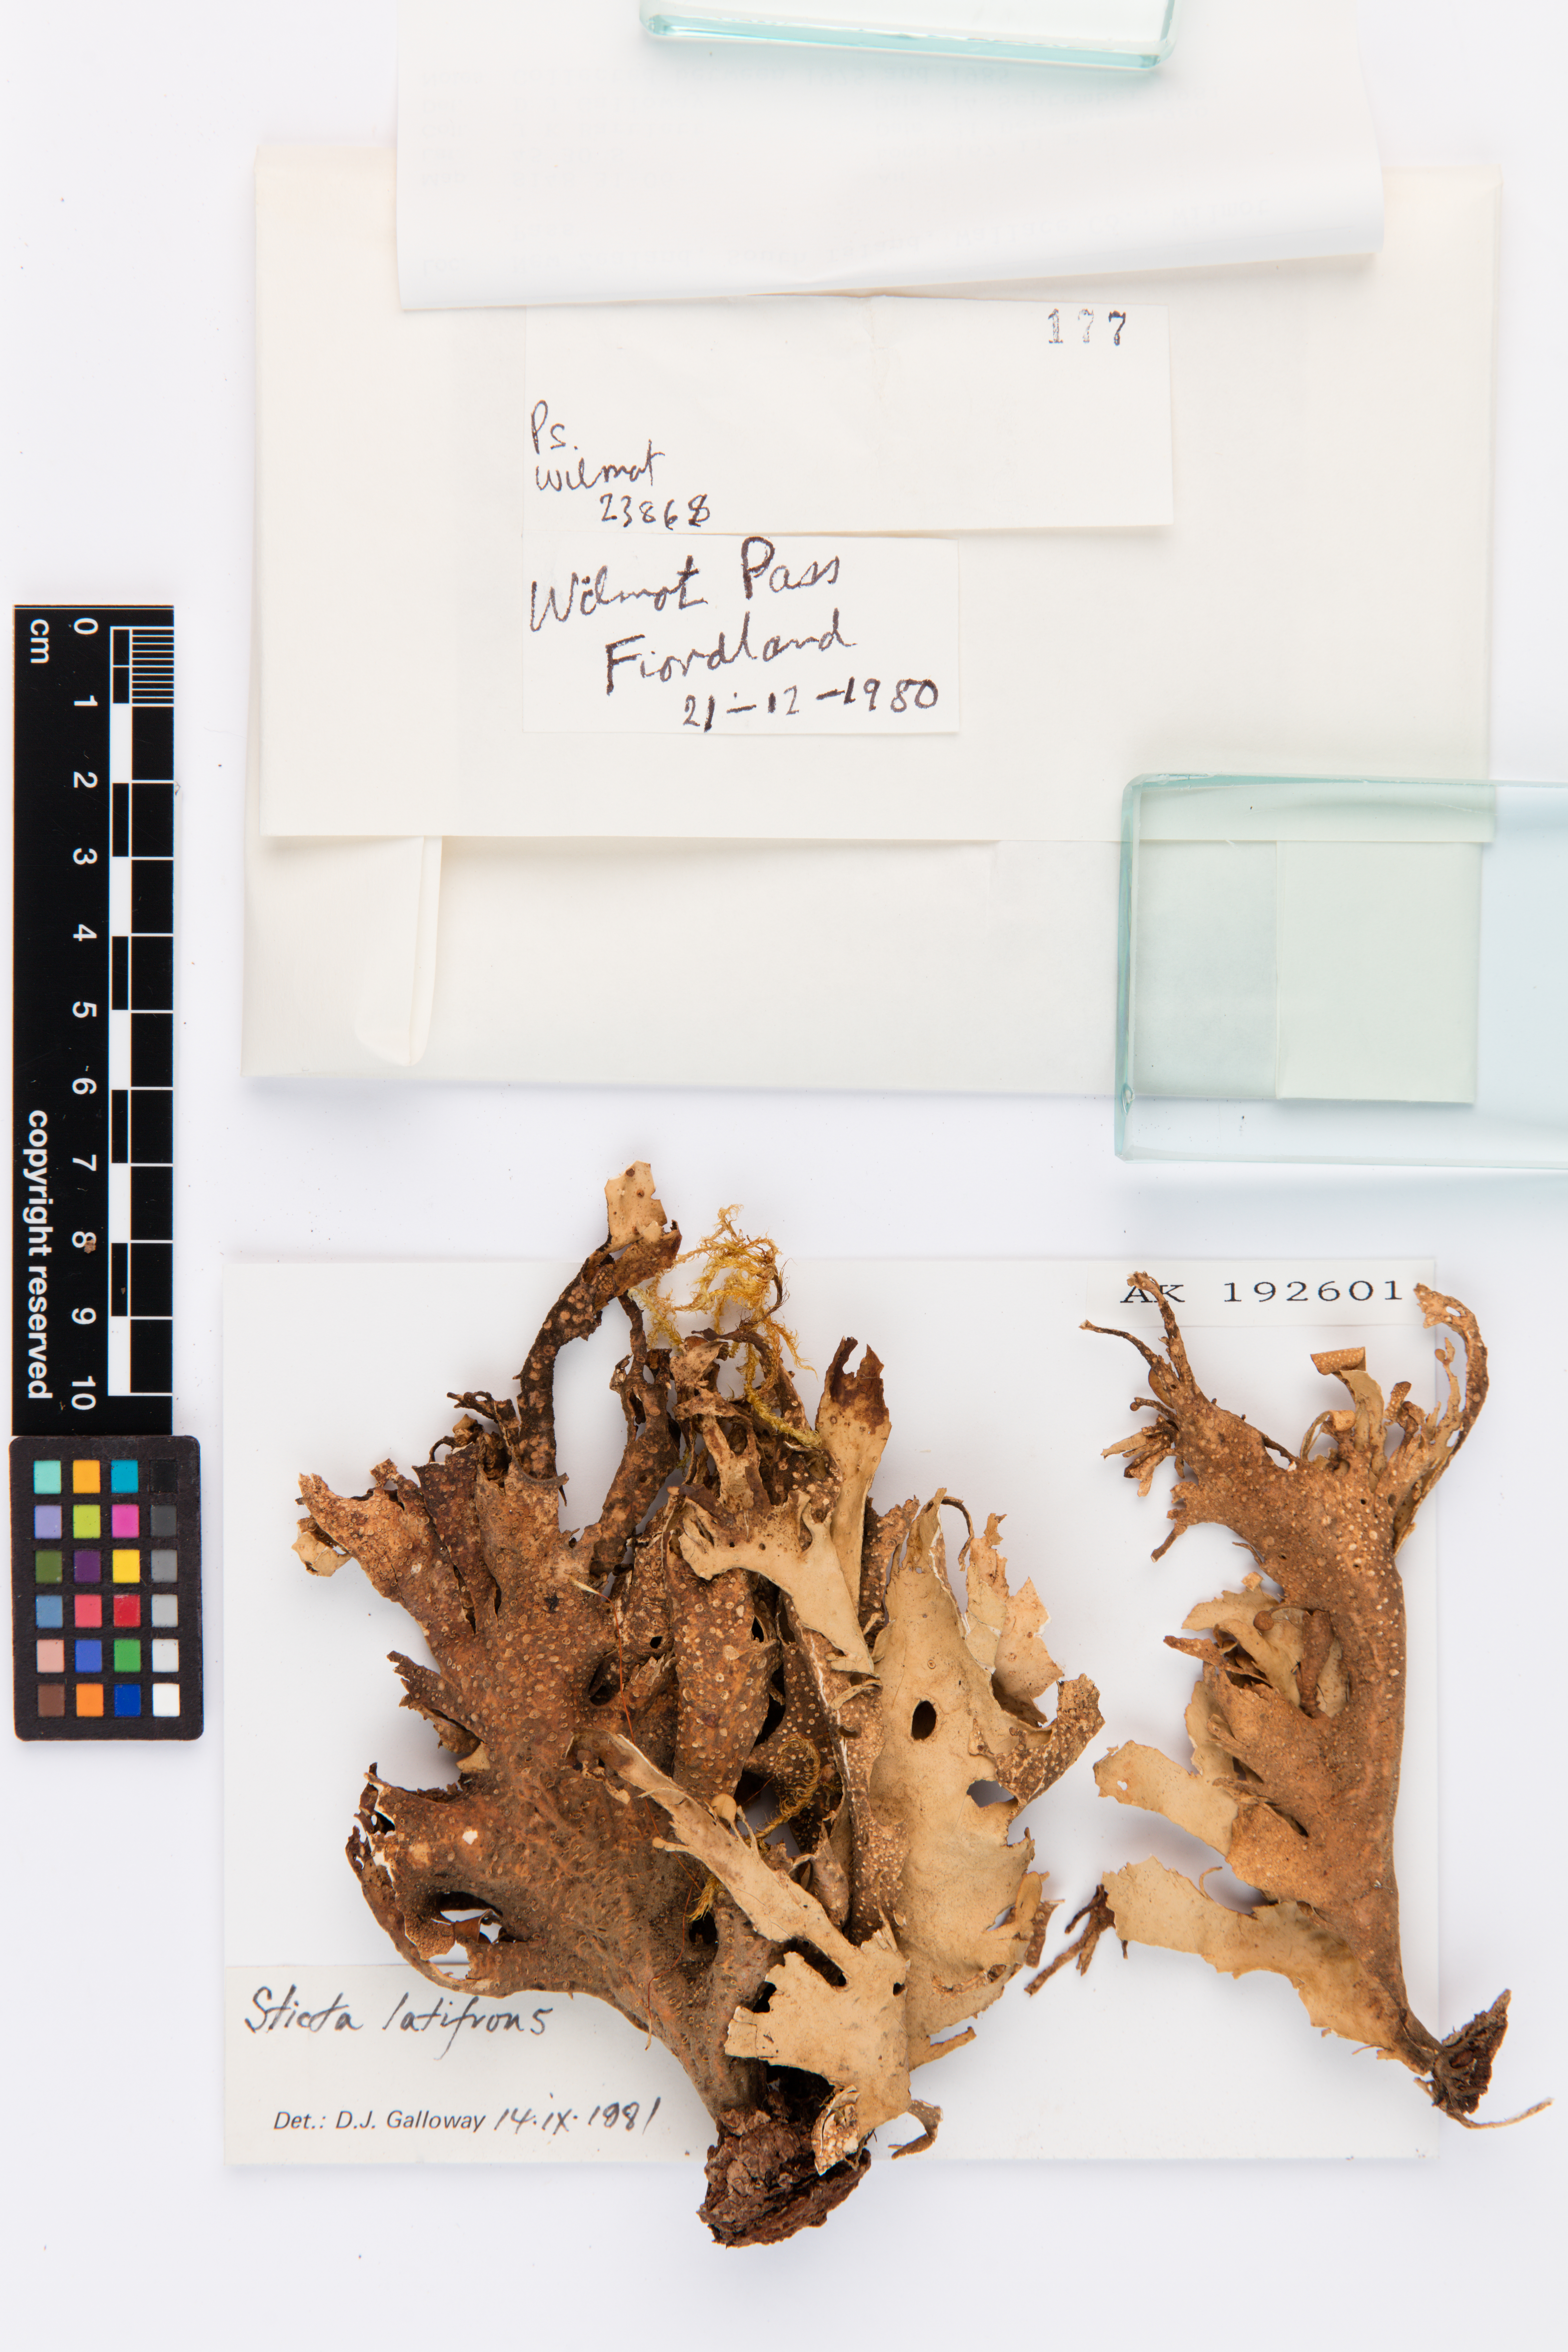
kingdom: Fungi
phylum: Ascomycota
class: Lecanoromycetes
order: Peltigerales
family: Lobariaceae
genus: Sticta
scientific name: Sticta latifrons
